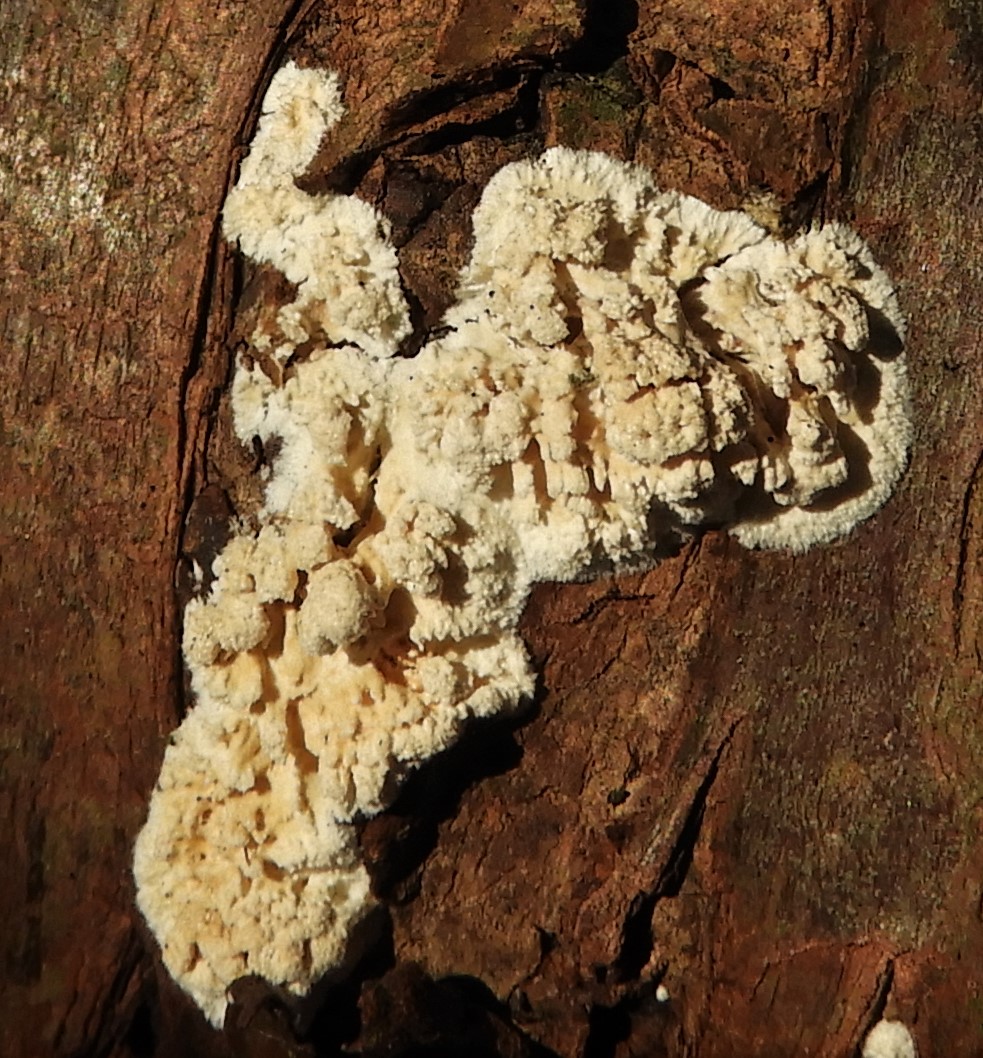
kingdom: Fungi
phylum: Basidiomycota
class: Agaricomycetes
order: Hymenochaetales
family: Schizoporaceae
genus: Xylodon
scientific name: Xylodon radula
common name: grovtandet kalkskind
